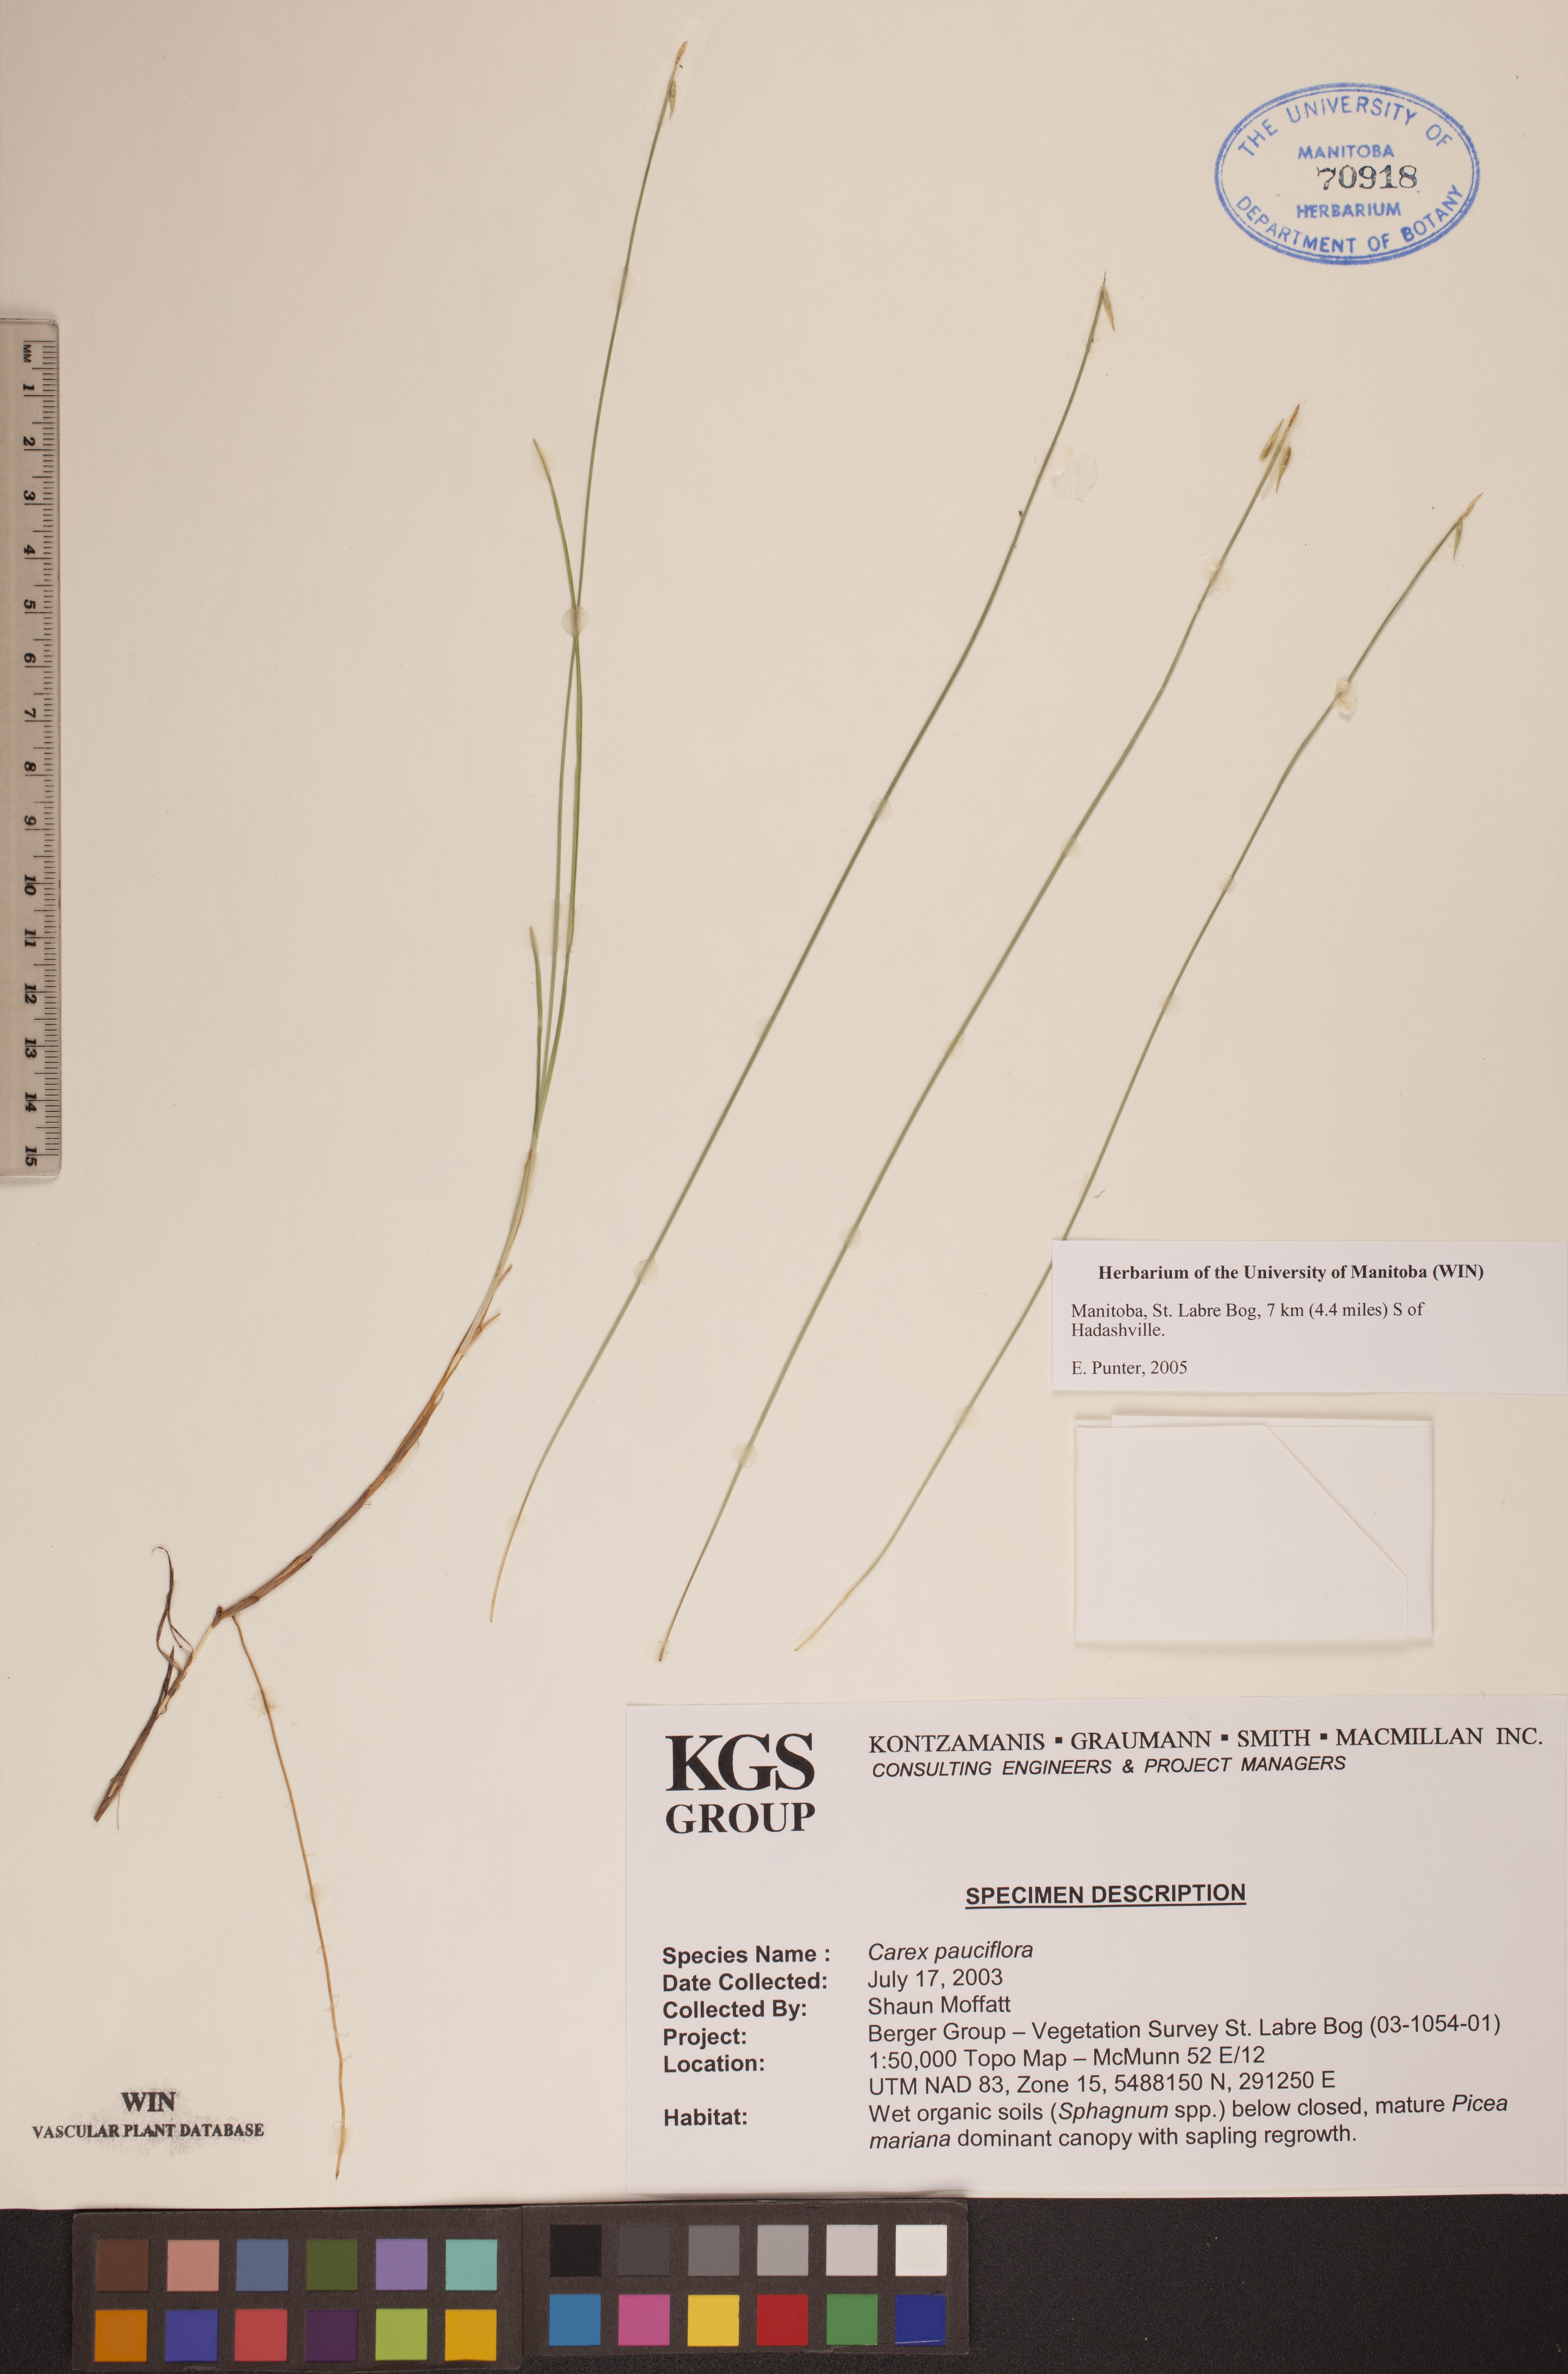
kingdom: Plantae
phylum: Tracheophyta
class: Liliopsida
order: Poales
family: Cyperaceae
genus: Carex
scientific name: Carex pauciflora
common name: Few-flowered sedge
